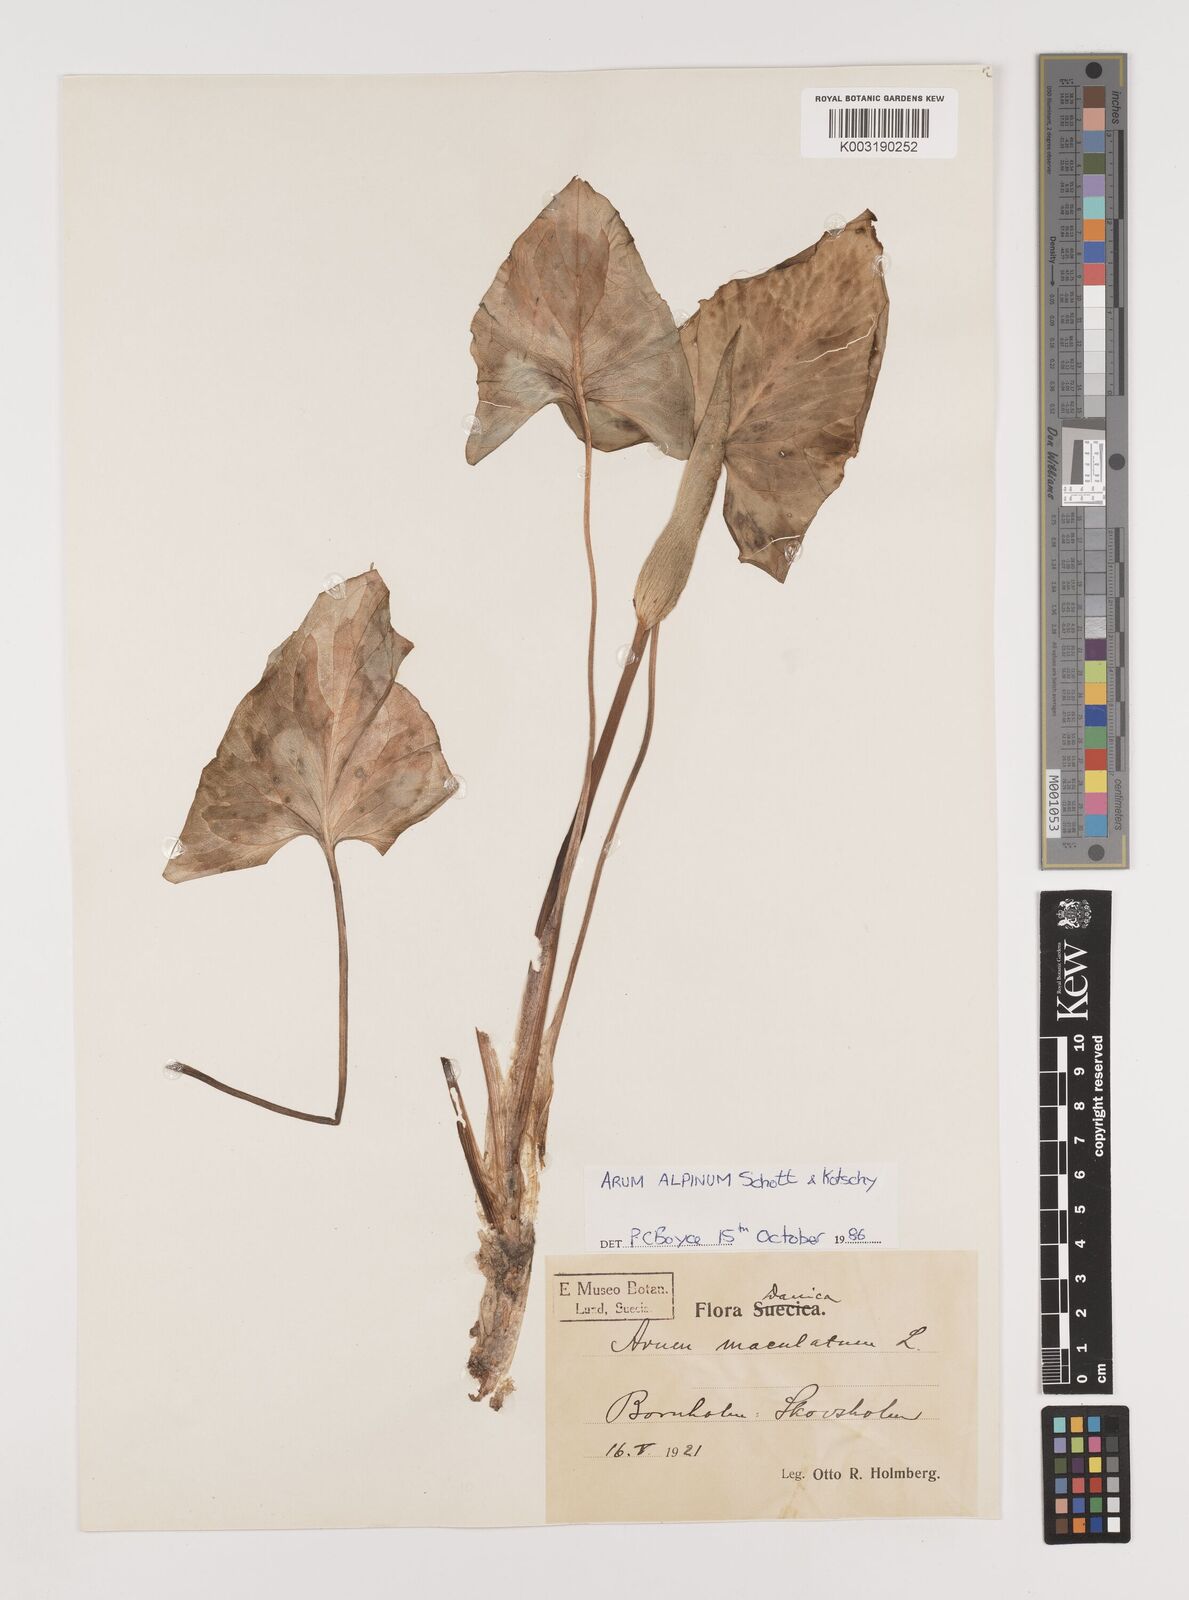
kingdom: Plantae
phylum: Tracheophyta
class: Liliopsida
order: Alismatales
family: Araceae
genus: Arum
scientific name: Arum cylindraceum
